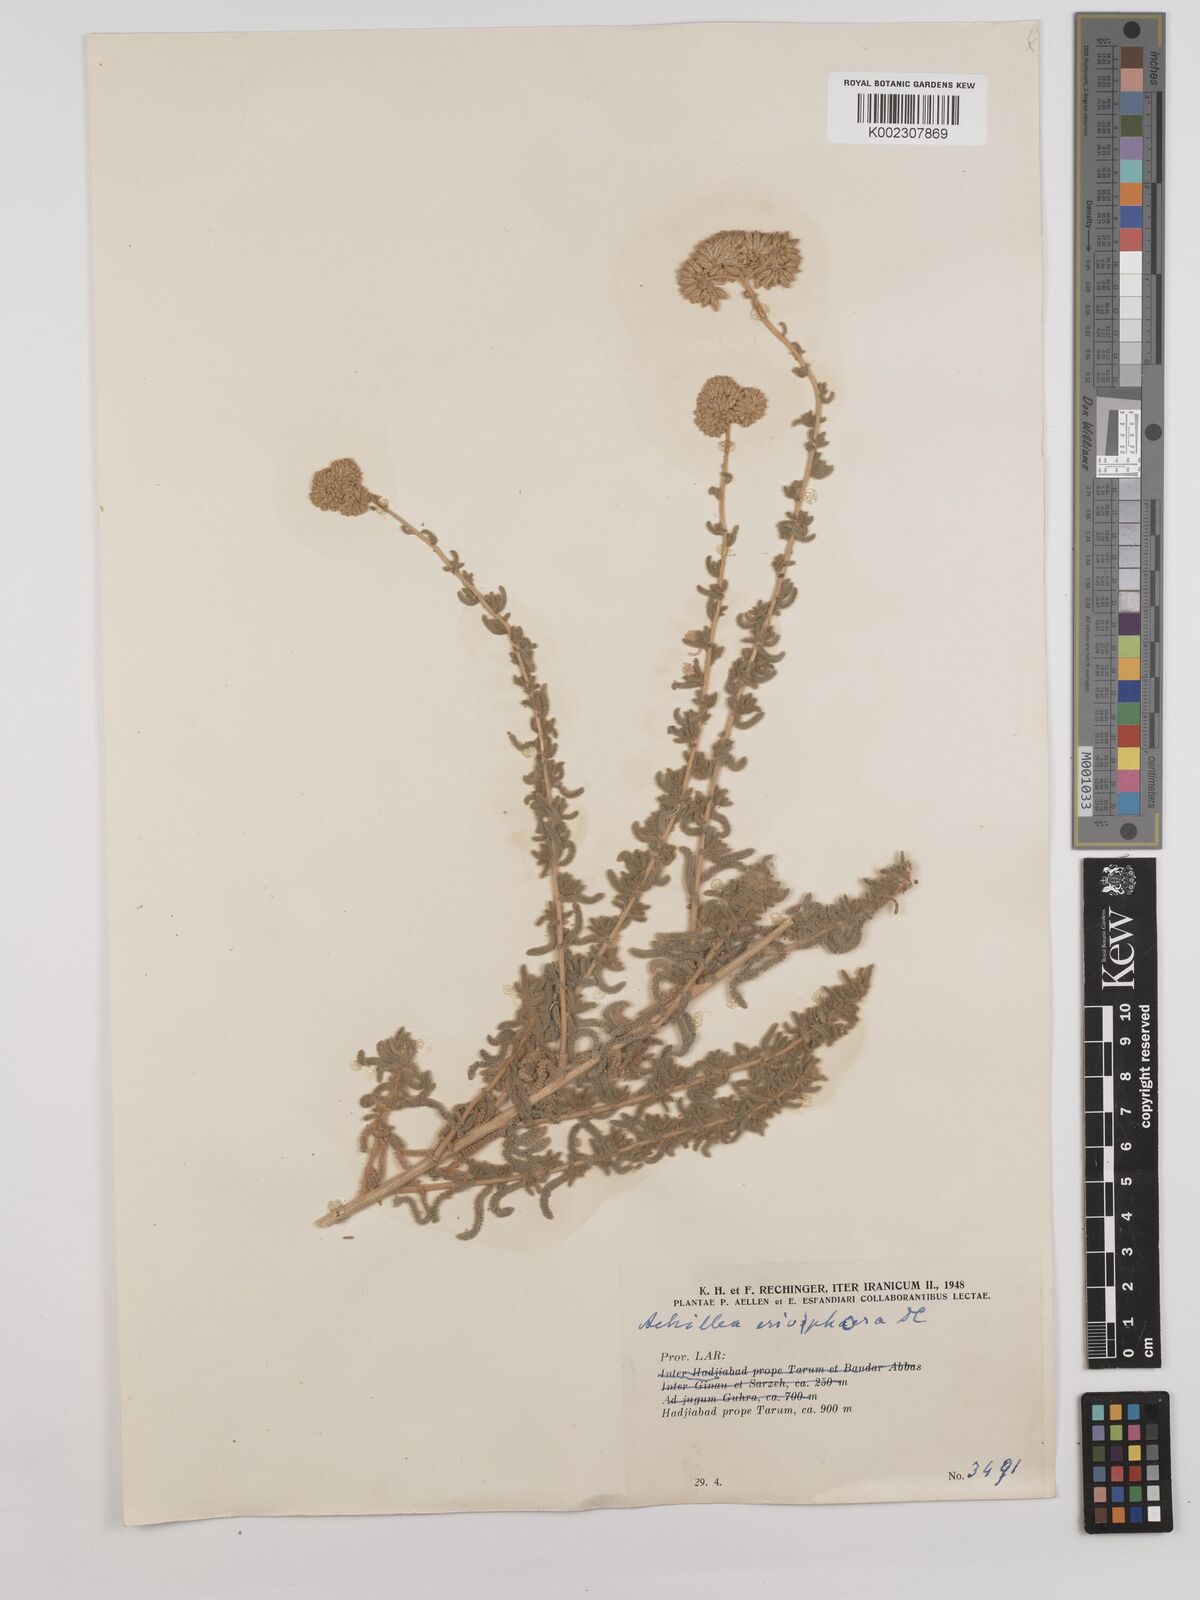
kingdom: Plantae
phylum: Tracheophyta
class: Magnoliopsida
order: Asterales
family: Asteraceae
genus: Achillea
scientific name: Achillea wilhelmsii
